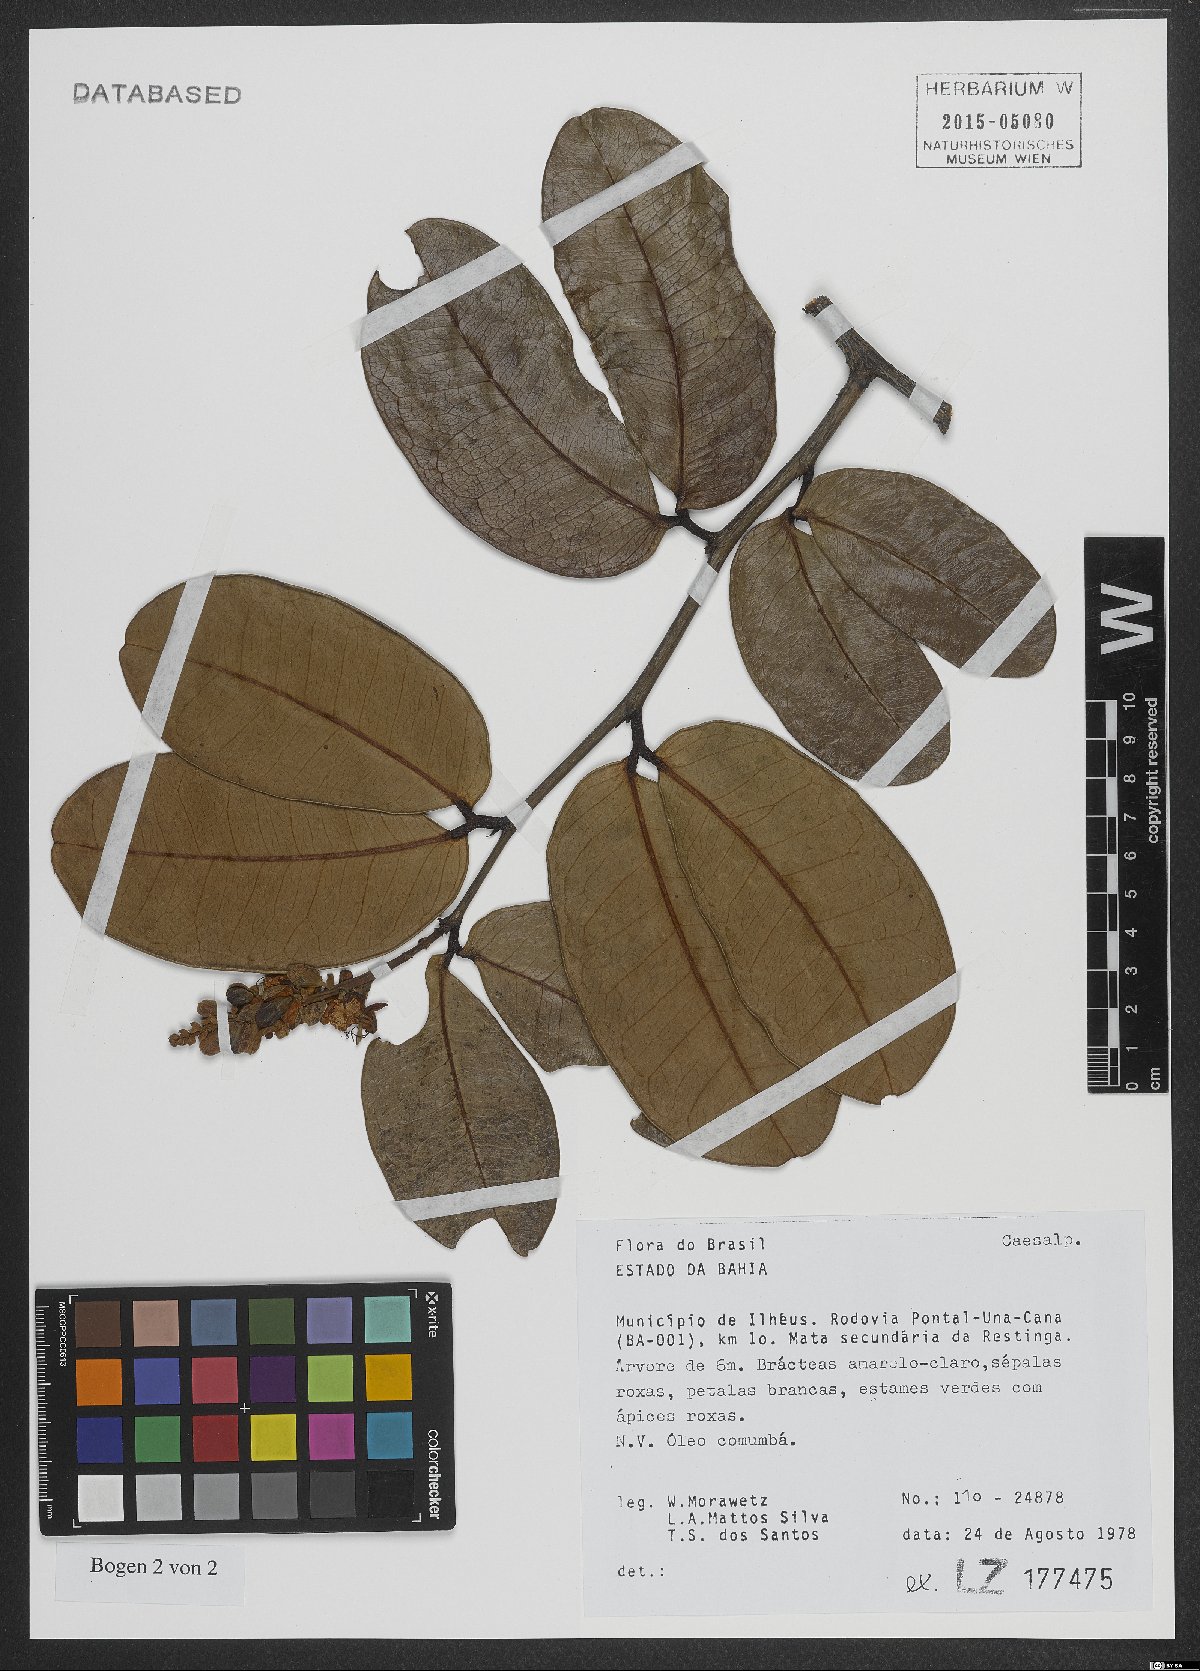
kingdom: Plantae
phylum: Tracheophyta
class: Magnoliopsida
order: Fabales
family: Fabaceae
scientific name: Fabaceae
